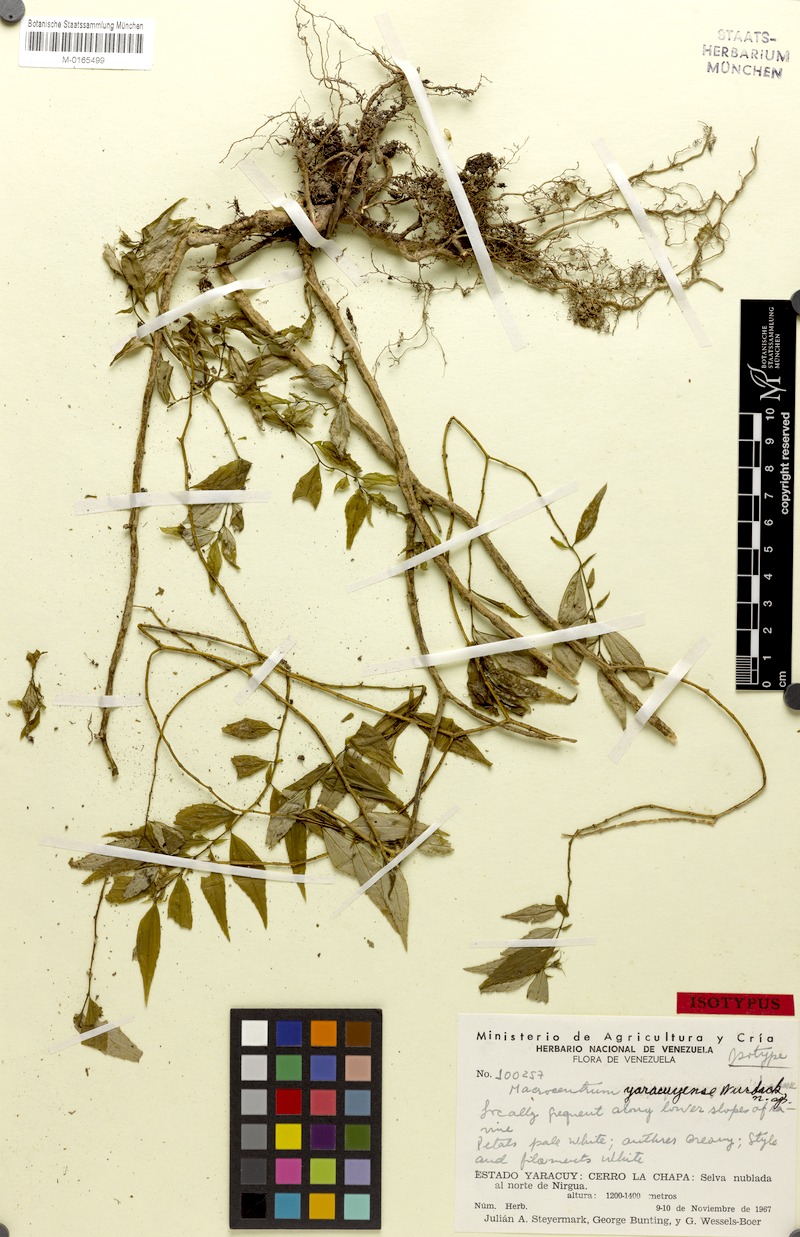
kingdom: Plantae
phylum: Tracheophyta
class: Magnoliopsida
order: Myrtales
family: Melastomataceae
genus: Macrocentrum
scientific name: Macrocentrum yaracuyense
